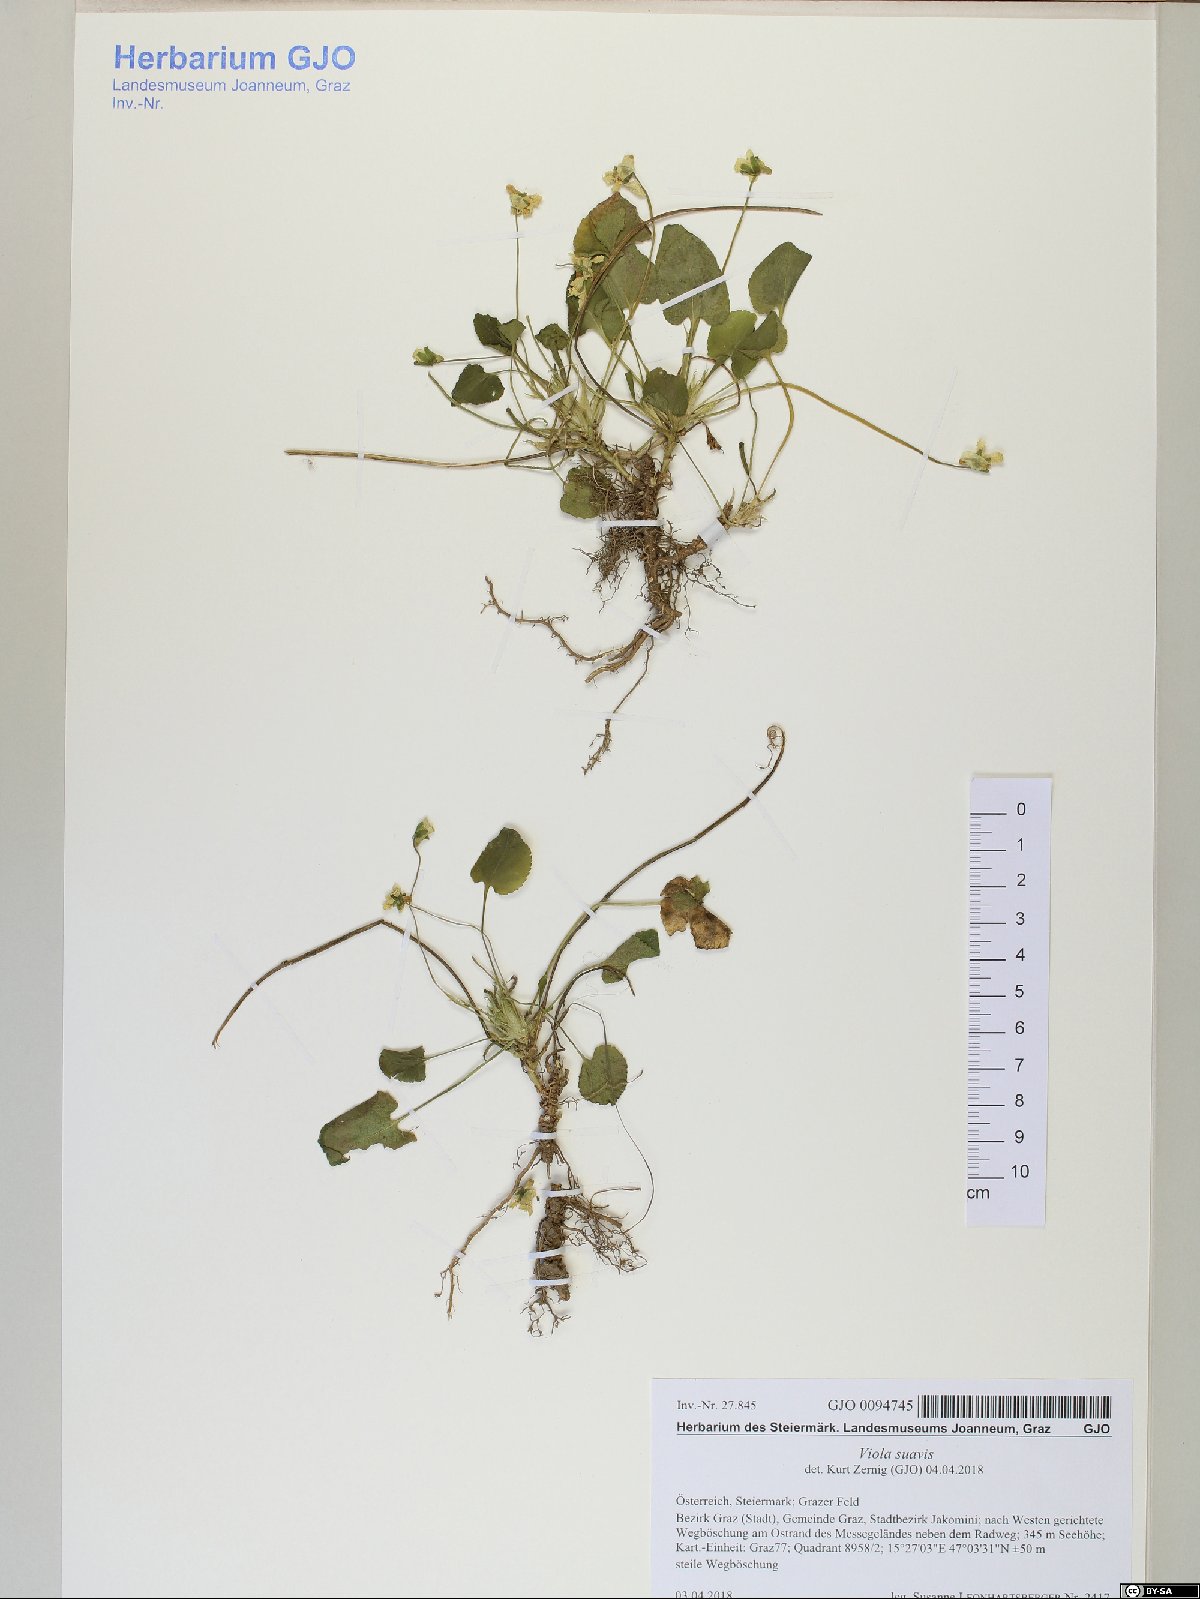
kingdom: Plantae
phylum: Tracheophyta
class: Magnoliopsida
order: Malpighiales
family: Violaceae
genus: Viola
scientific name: Viola suavis
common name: Russian violet
